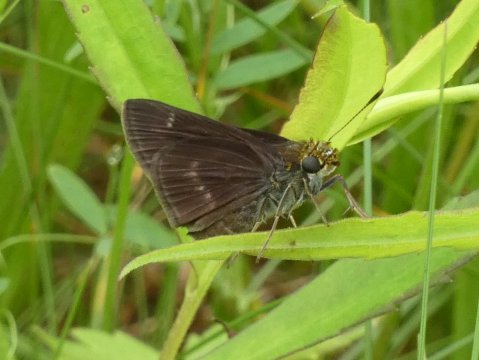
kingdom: Animalia
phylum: Arthropoda
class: Insecta
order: Lepidoptera
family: Hesperiidae
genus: Euphyes
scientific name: Euphyes vestris
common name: Dun Skipper
